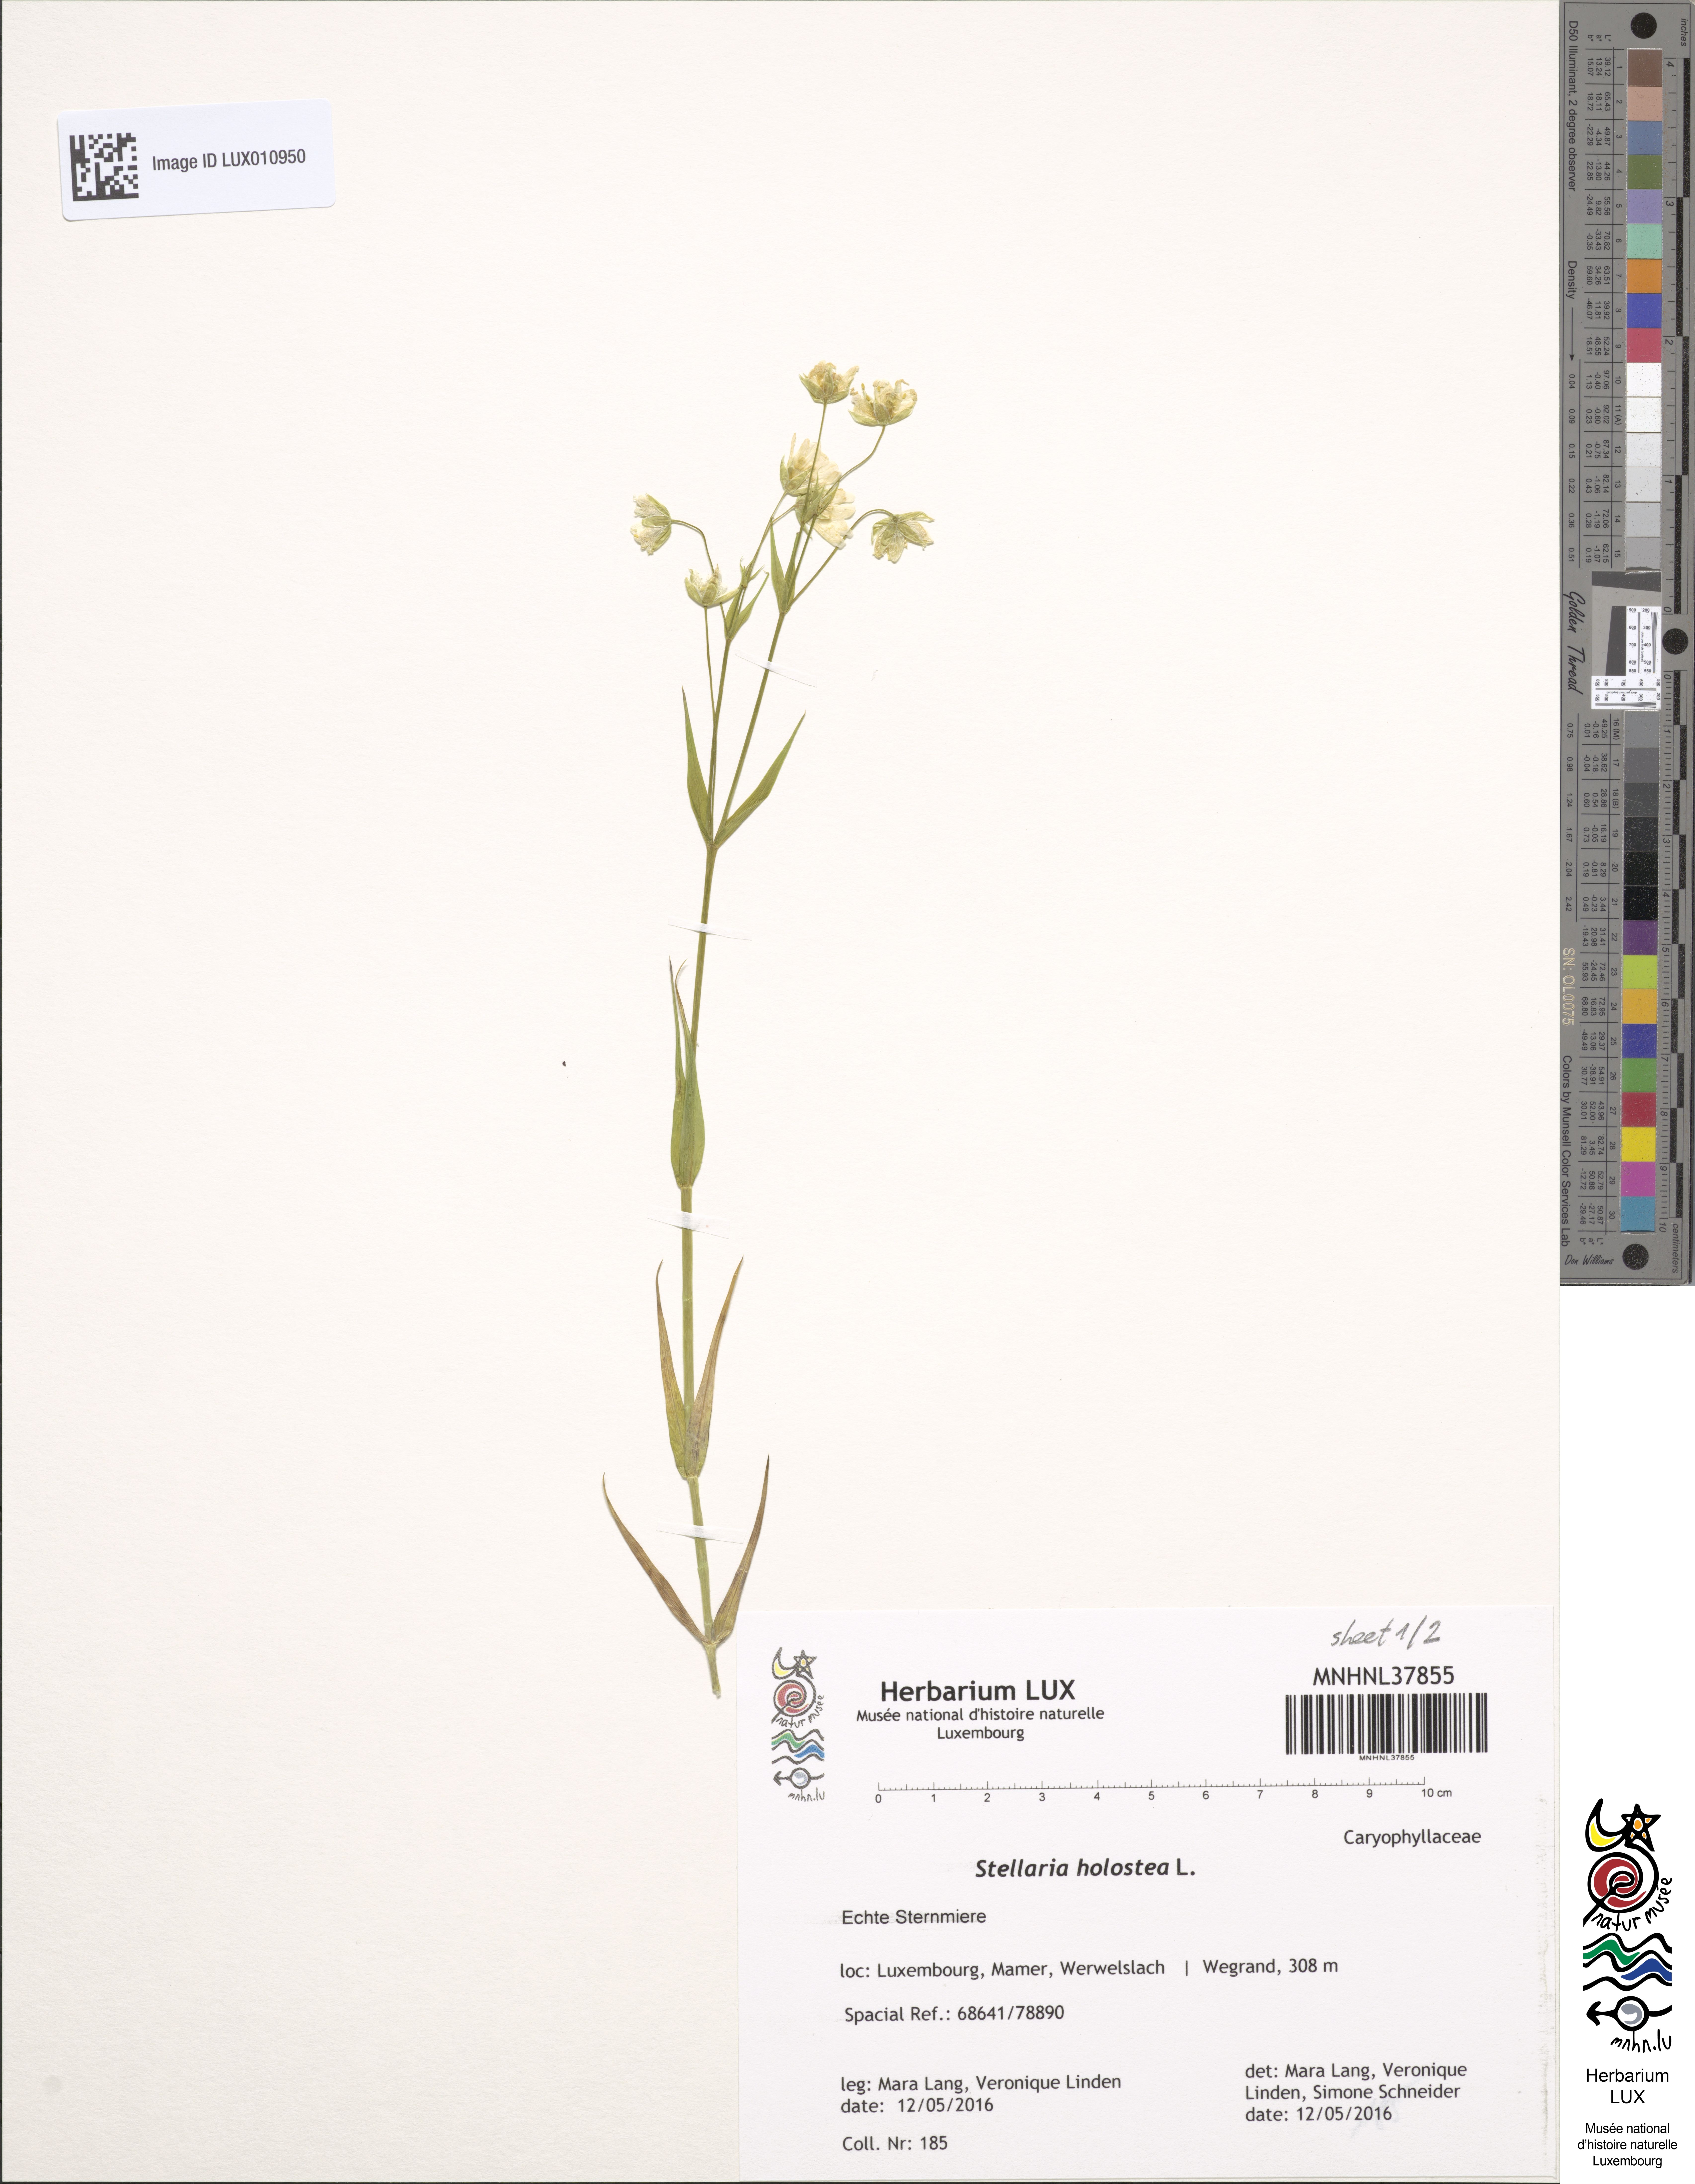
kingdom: Plantae
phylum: Tracheophyta
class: Magnoliopsida
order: Caryophyllales
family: Caryophyllaceae
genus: Rabelera
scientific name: Rabelera holostea
